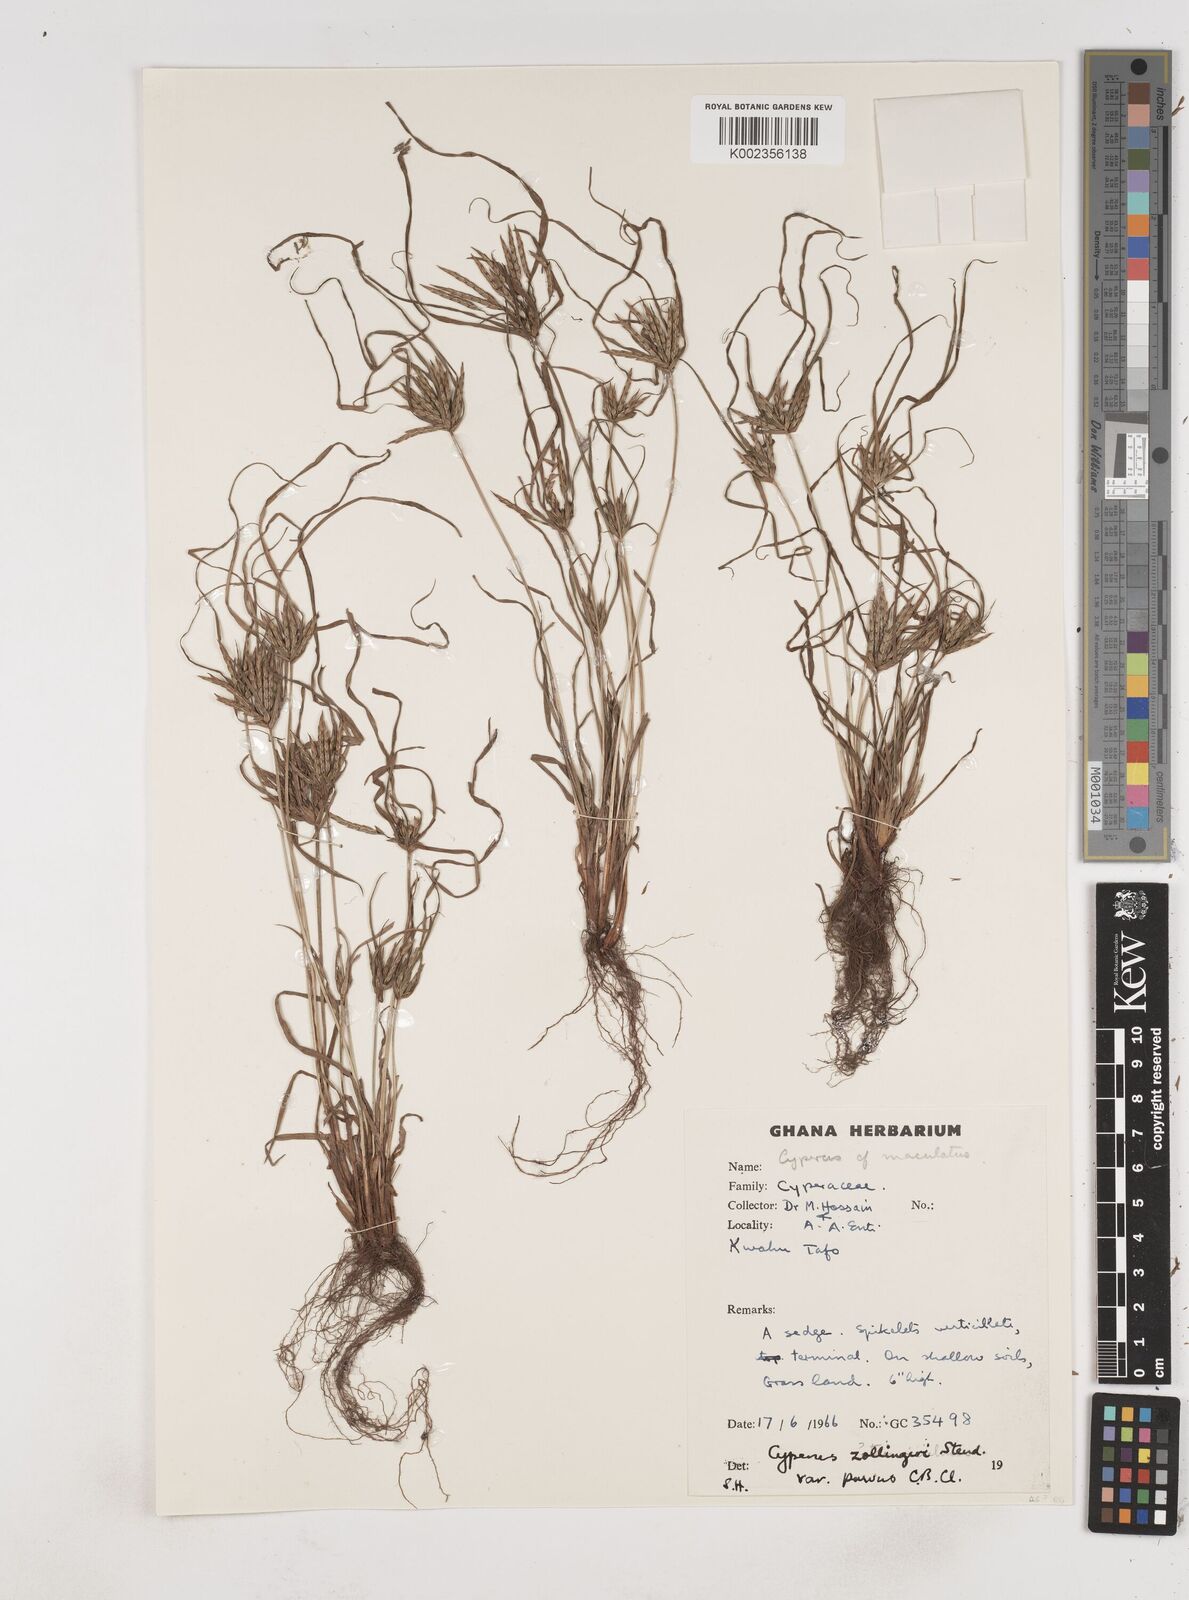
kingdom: Plantae
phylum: Tracheophyta
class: Liliopsida
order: Poales
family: Cyperaceae
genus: Cyperus
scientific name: Cyperus zollingeri
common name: Roadside flatsedge
